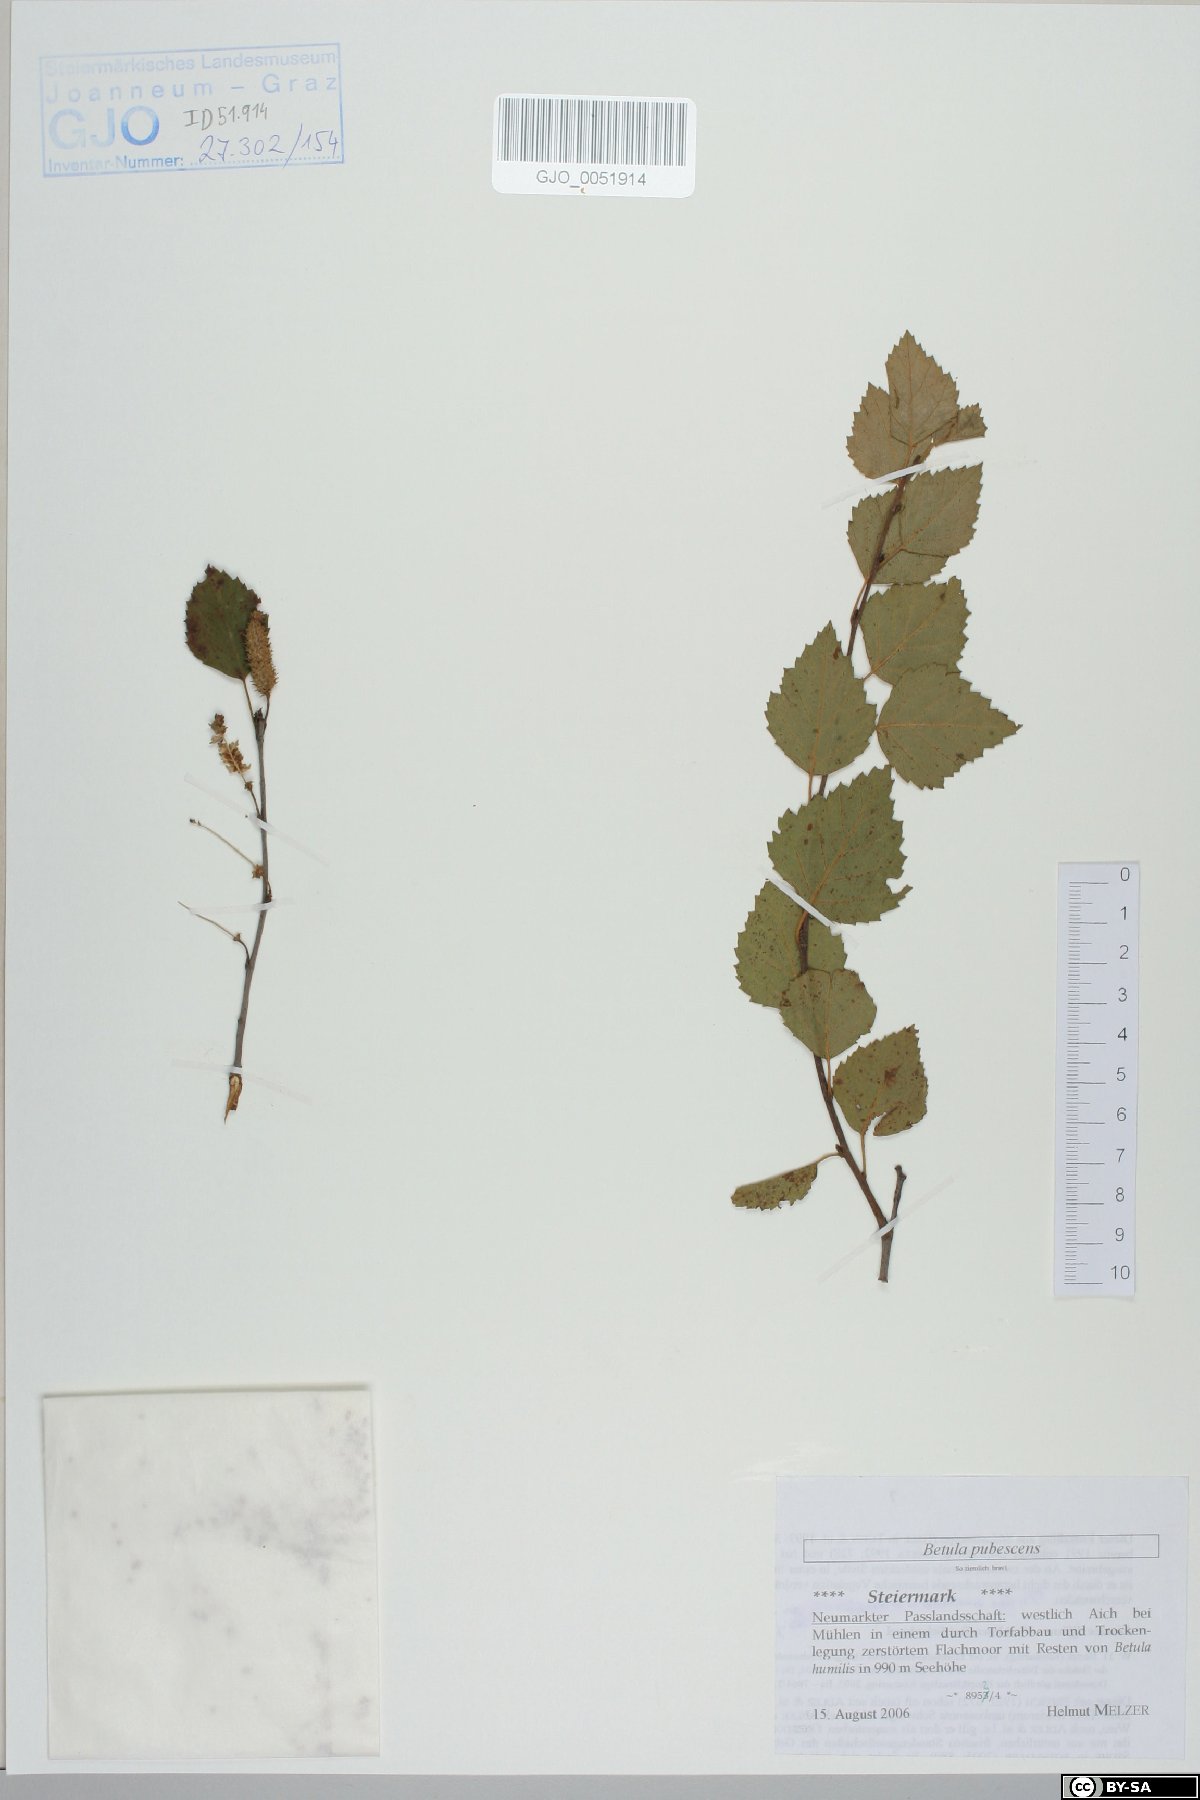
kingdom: Plantae
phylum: Tracheophyta
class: Magnoliopsida
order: Fagales
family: Betulaceae
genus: Betula
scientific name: Betula pubescens
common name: Downy birch
